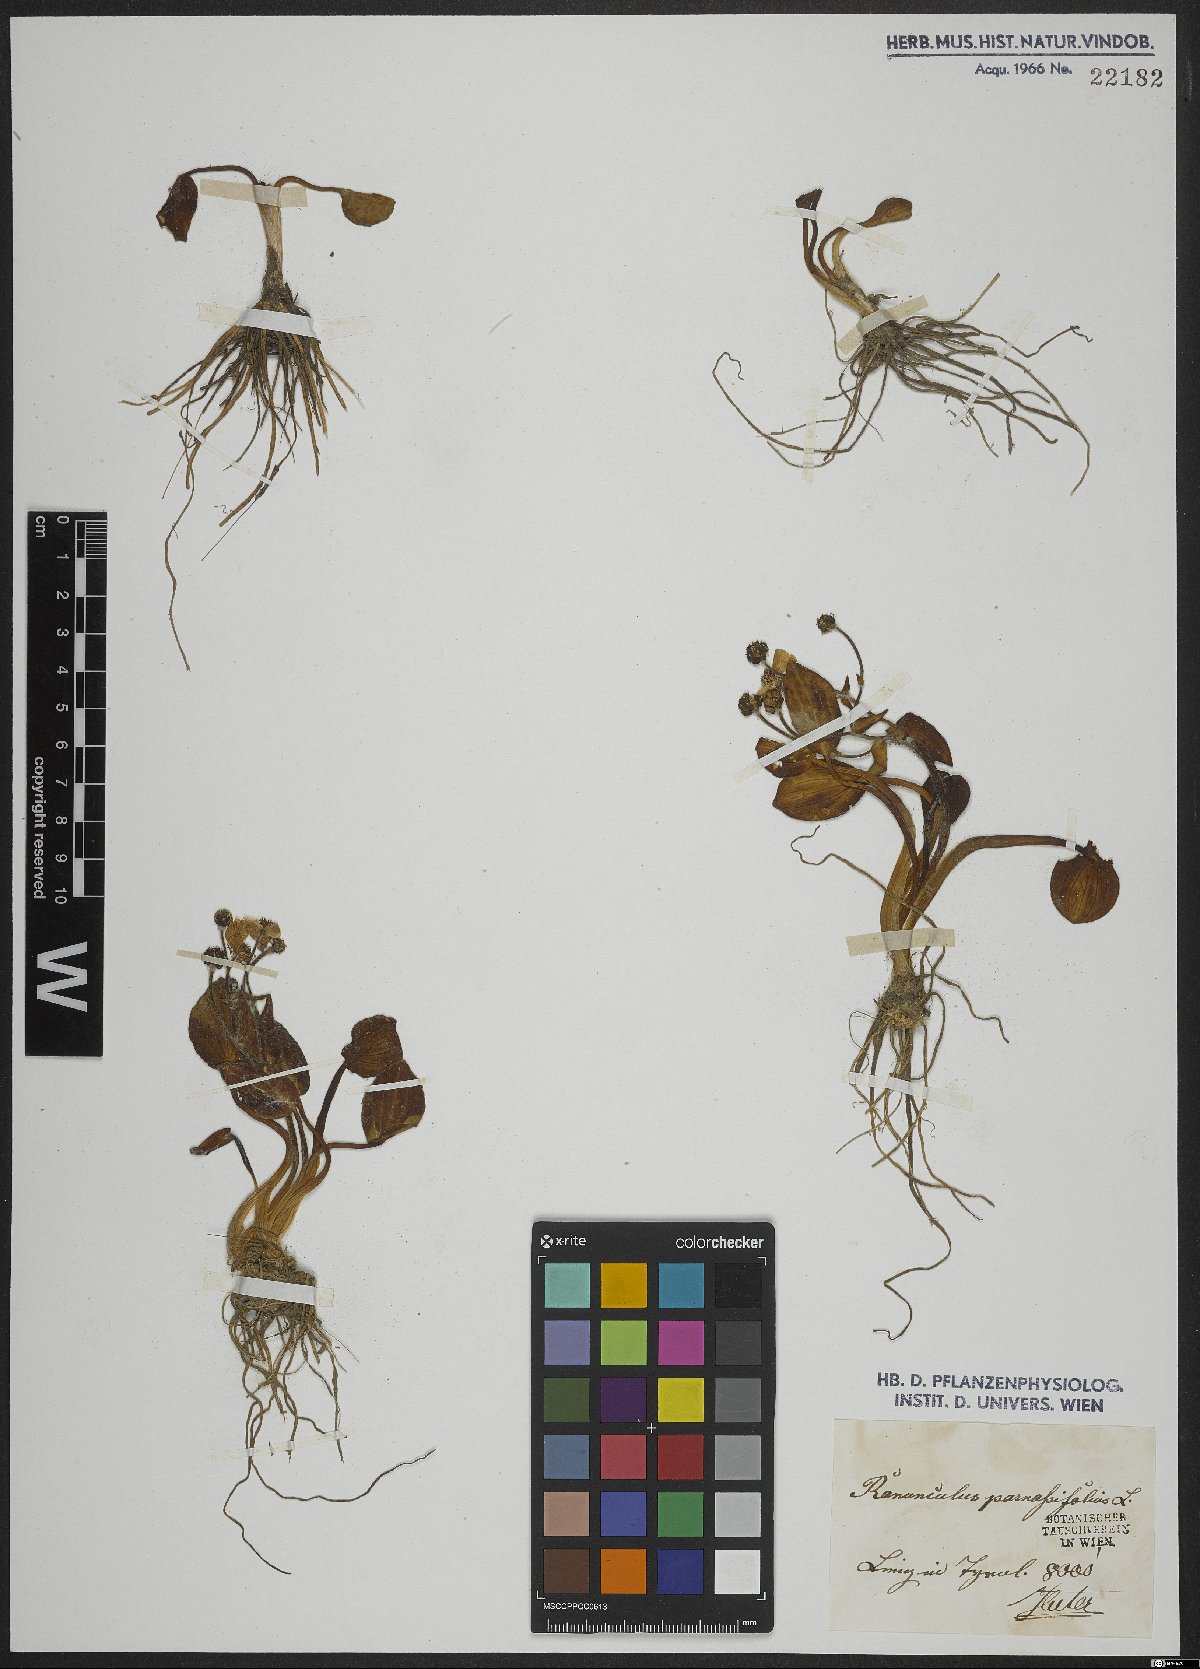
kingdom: Plantae
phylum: Tracheophyta
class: Magnoliopsida
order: Ranunculales
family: Ranunculaceae
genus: Ranunculus
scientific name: Ranunculus parnassiifolius
